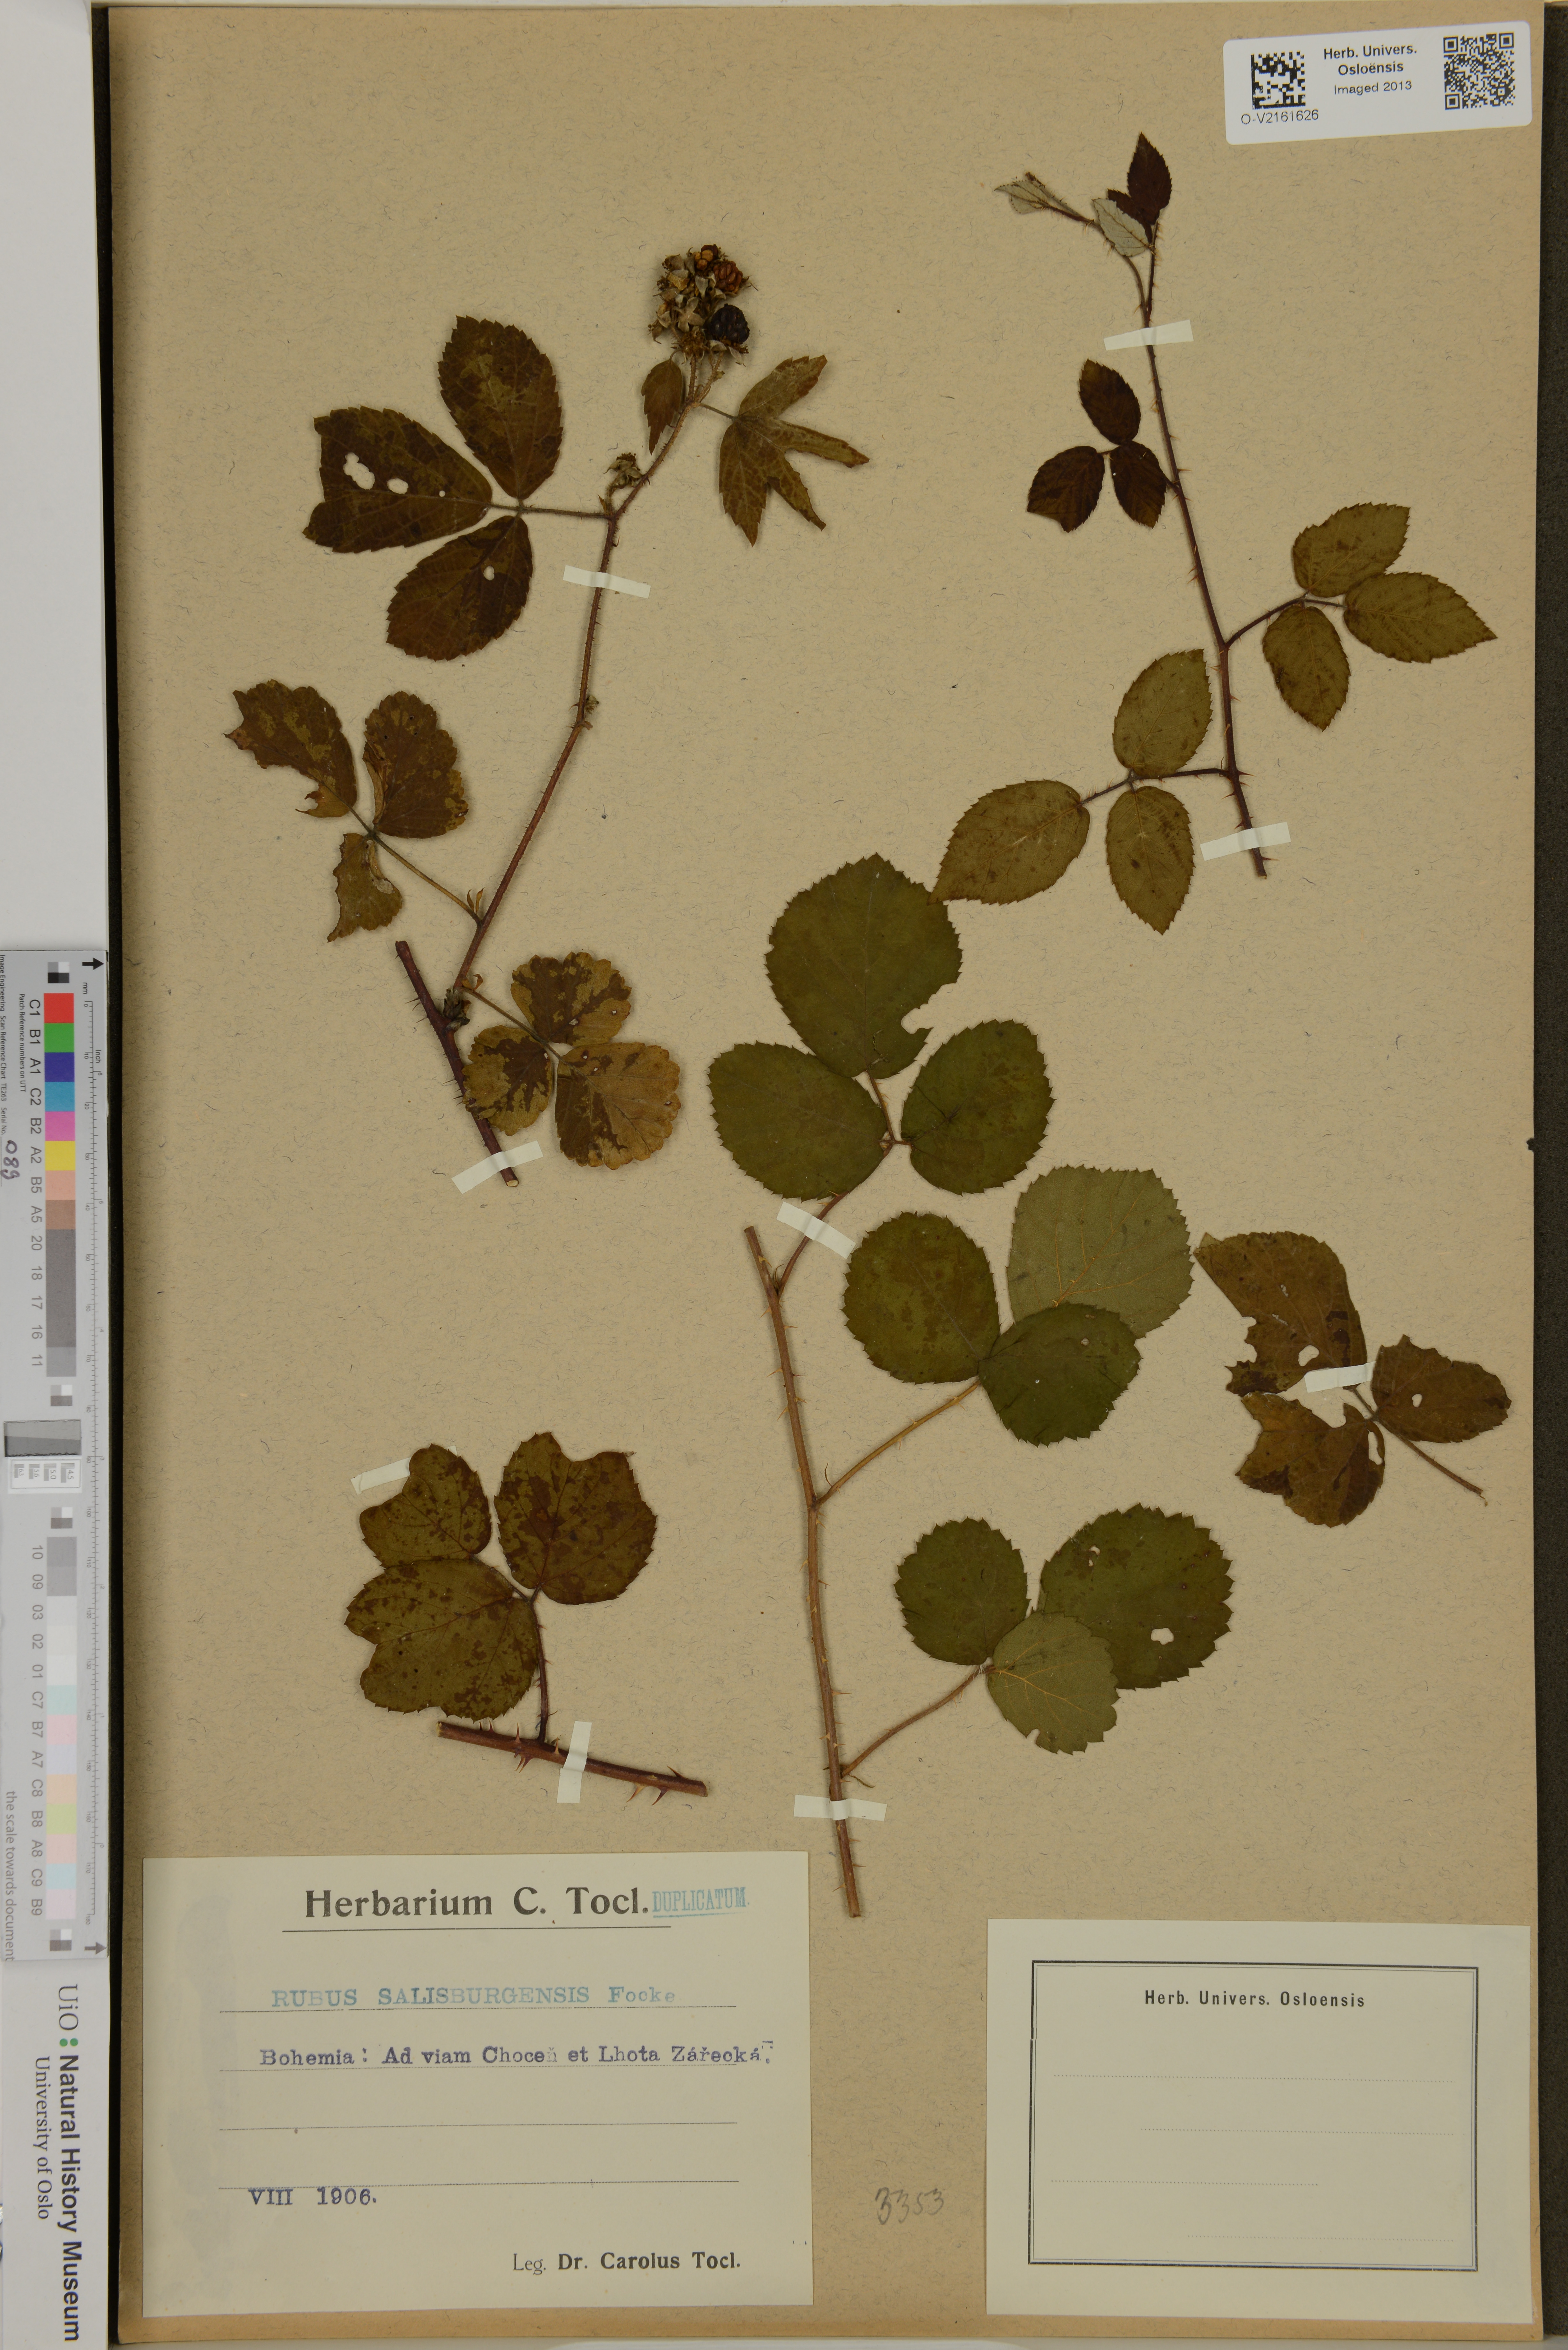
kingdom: Plantae
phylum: Tracheophyta
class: Magnoliopsida
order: Rosales
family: Rosaceae
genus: Rubus
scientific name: Rubus salisburgensis
